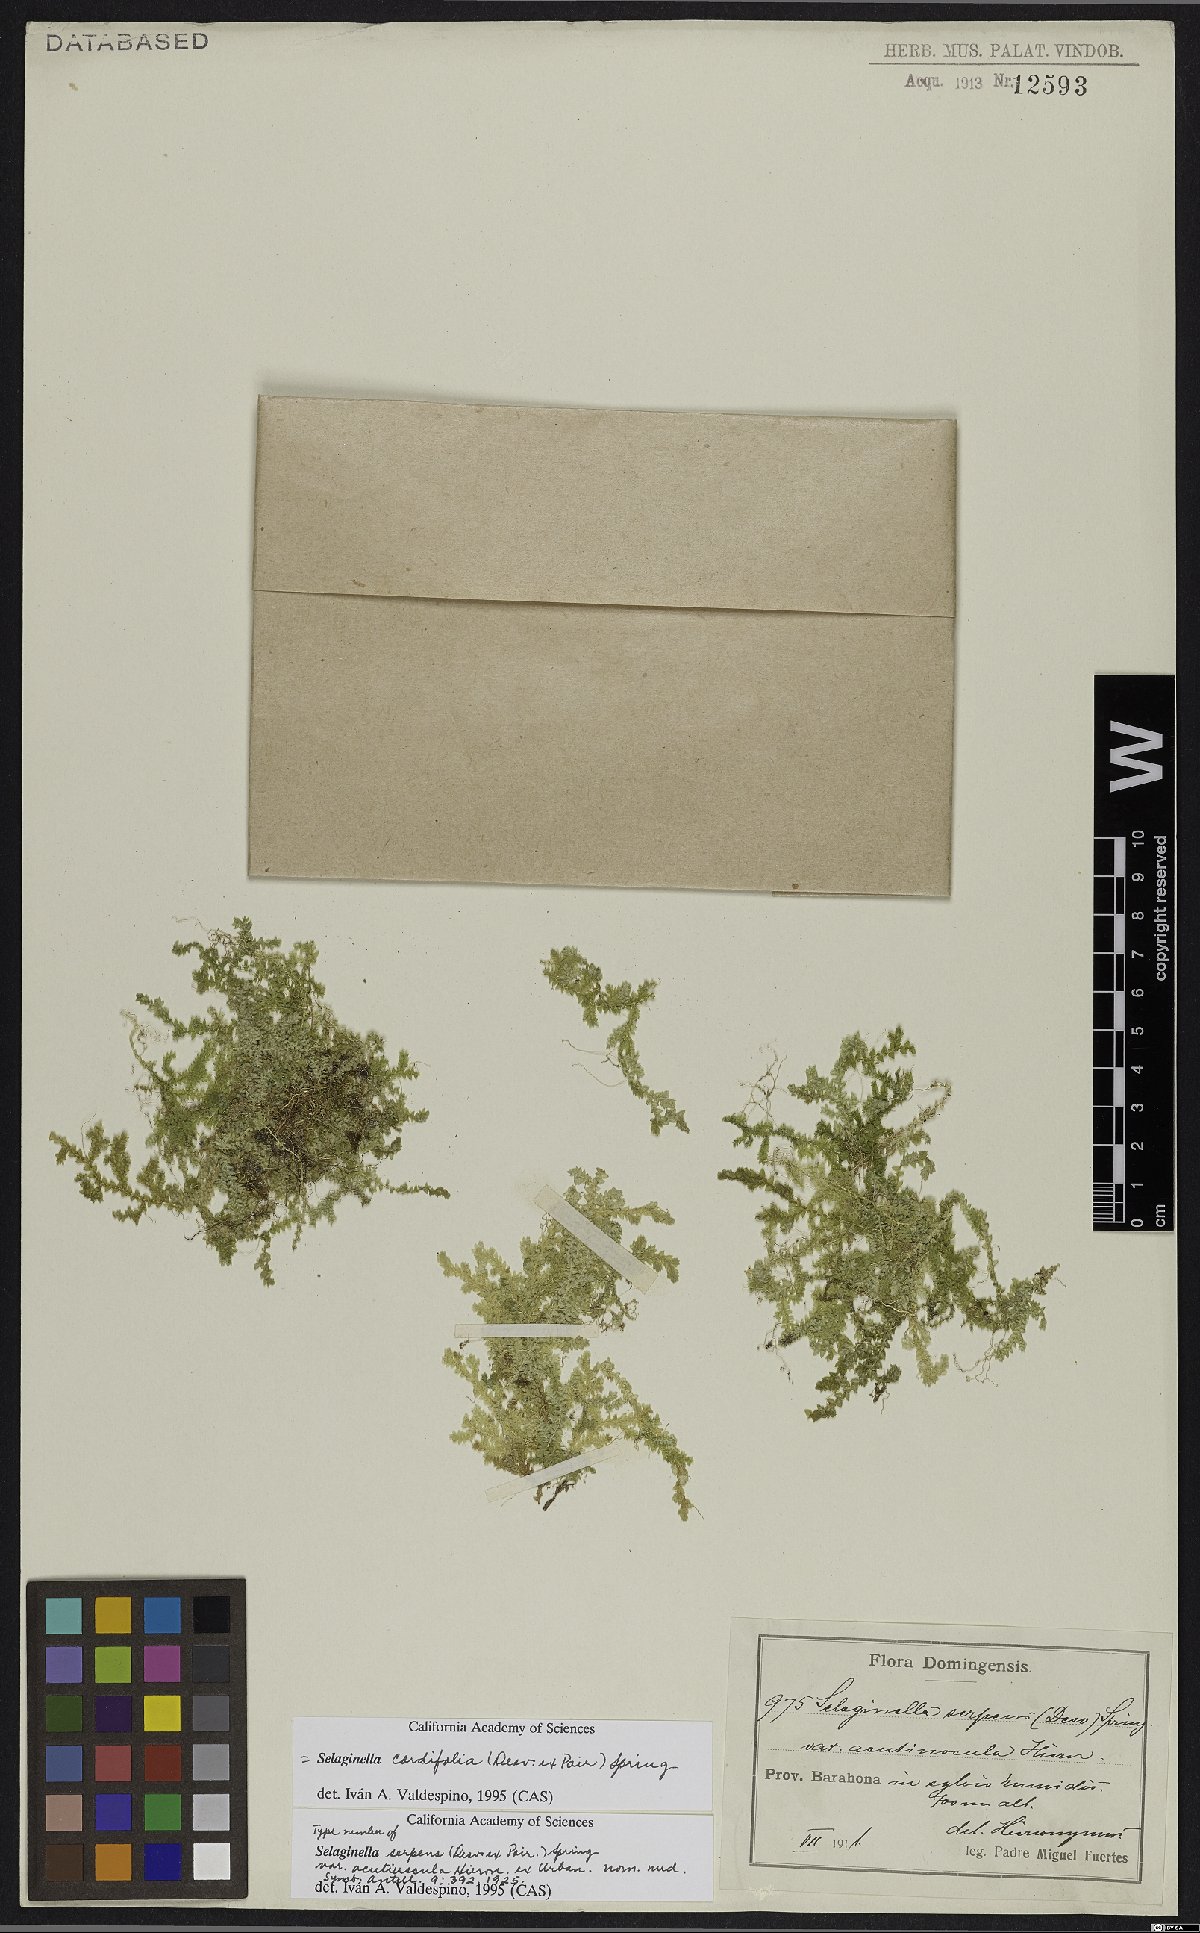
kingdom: Plantae
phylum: Tracheophyta
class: Lycopodiopsida
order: Selaginellales
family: Selaginellaceae
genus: Selaginella
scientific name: Selaginella cordifolia
